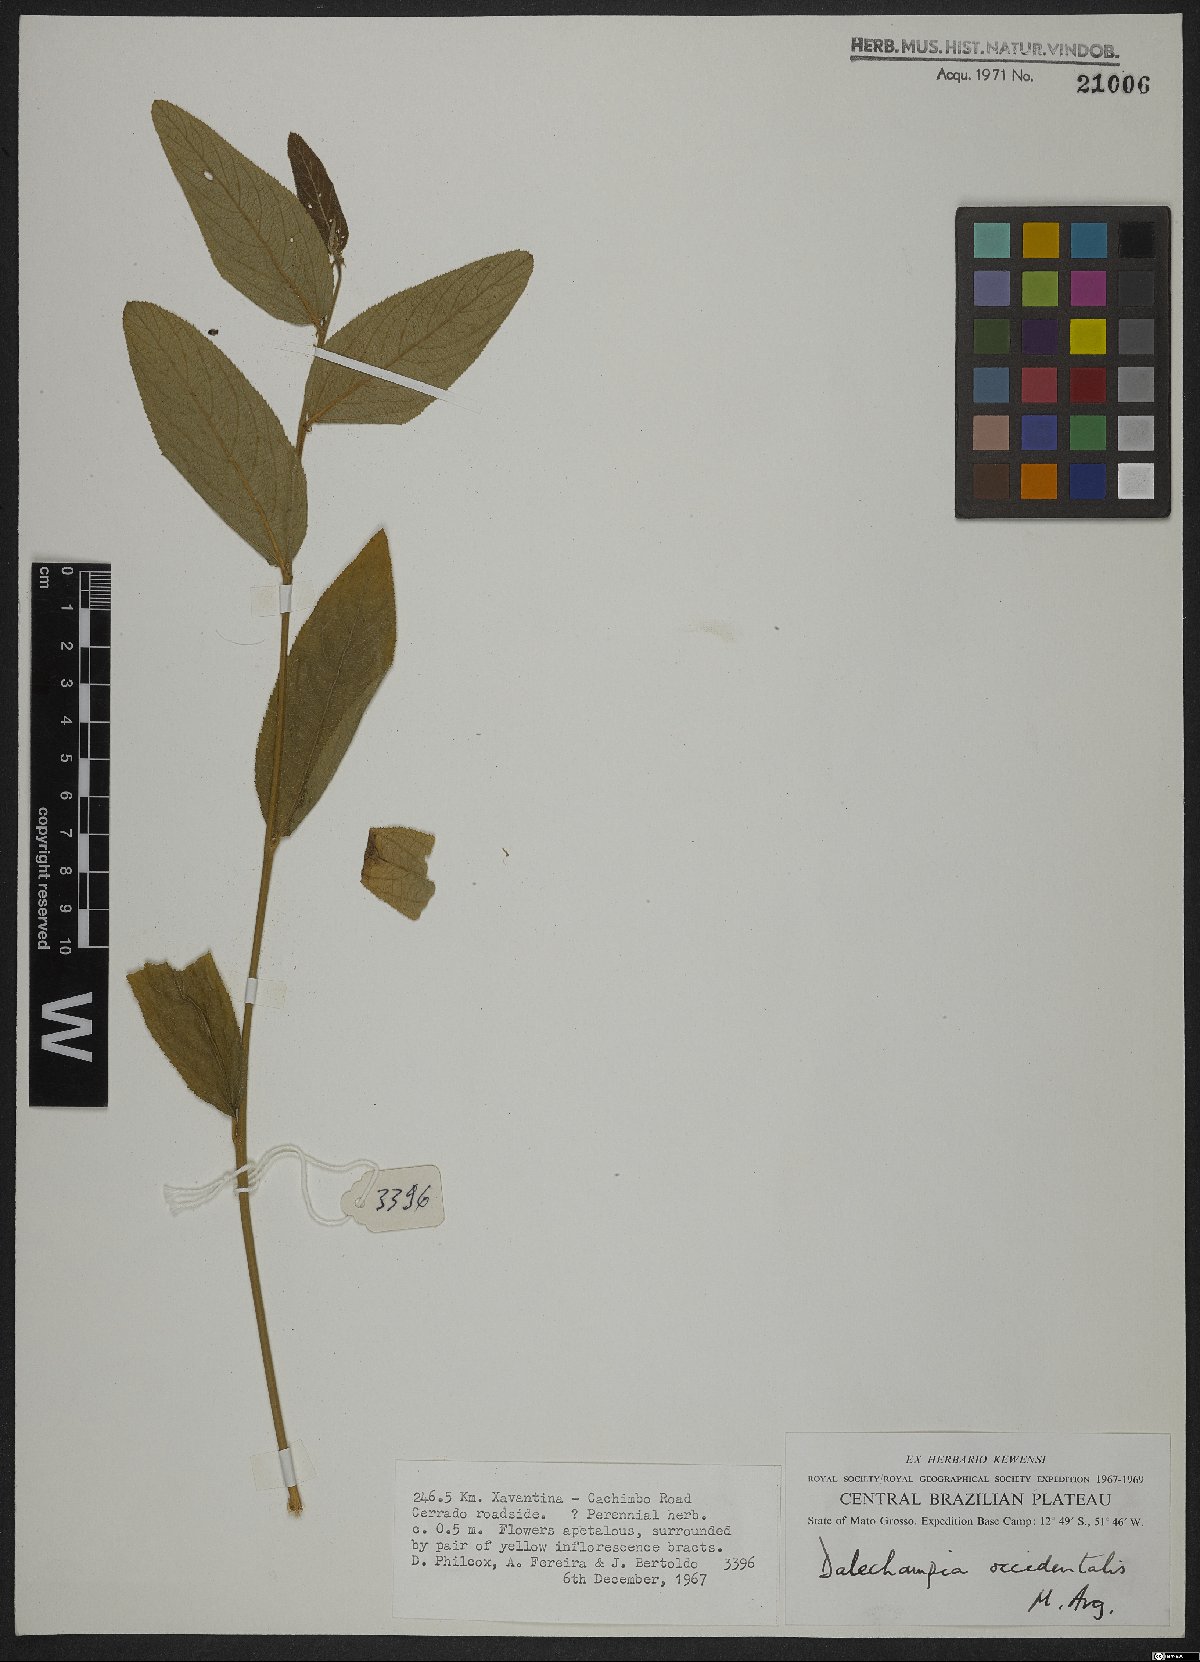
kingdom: Plantae
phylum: Tracheophyta
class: Magnoliopsida
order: Malpighiales
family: Euphorbiaceae
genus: Dalechampia
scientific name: Dalechampia occidentalis
